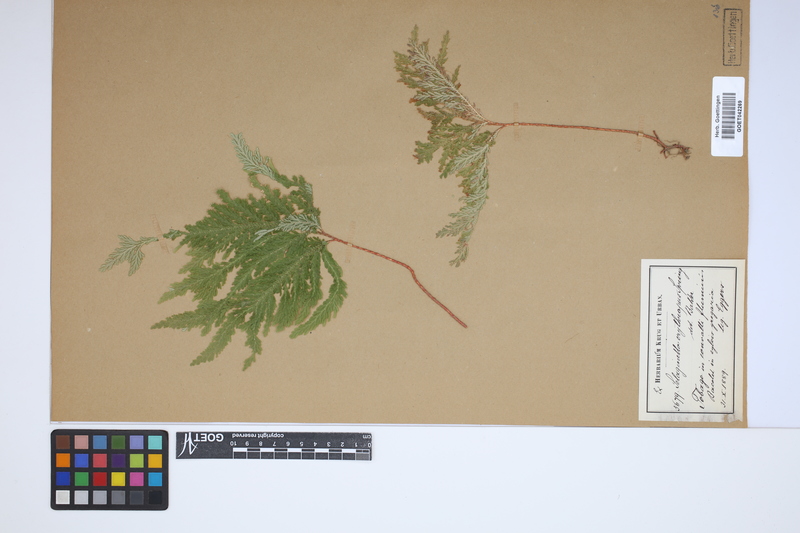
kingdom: Plantae
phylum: Tracheophyta
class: Lycopodiopsida
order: Selaginellales
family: Selaginellaceae
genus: Selaginella
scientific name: Selaginella erythropus
